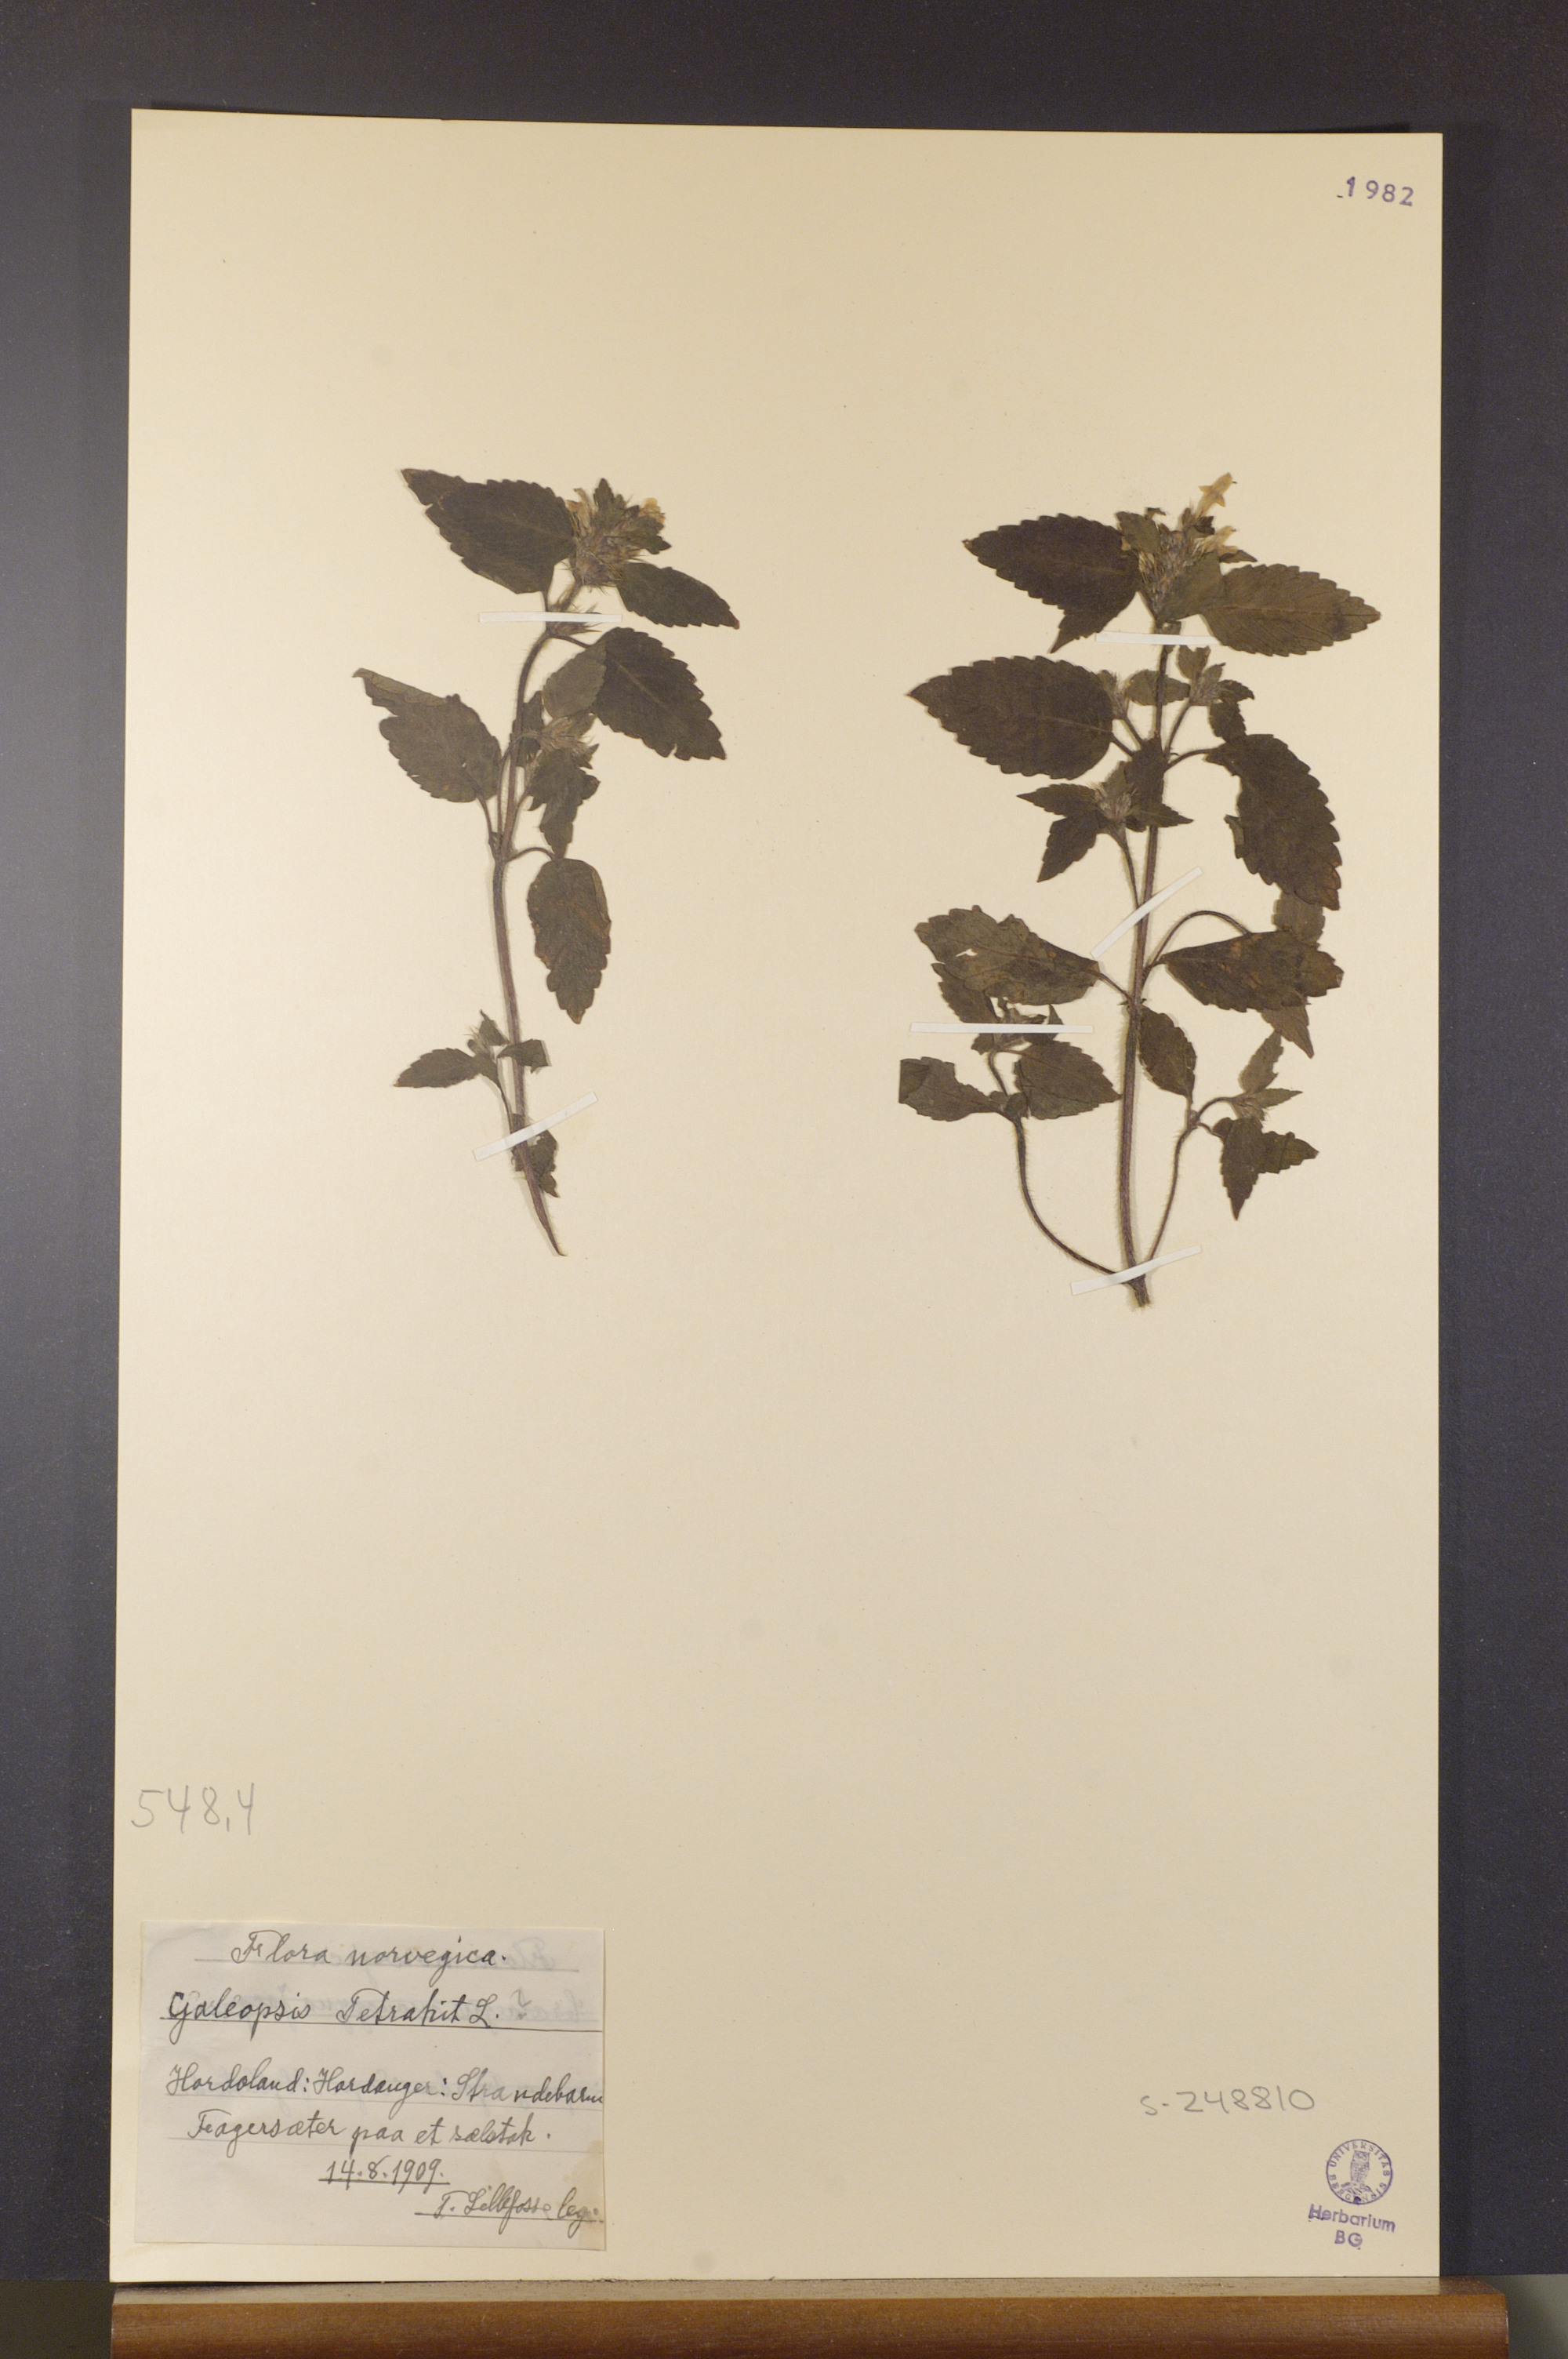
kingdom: Plantae
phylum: Tracheophyta
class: Magnoliopsida
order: Lamiales
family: Lamiaceae
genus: Galeopsis
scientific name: Galeopsis tetrahit
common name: Common hemp-nettle
